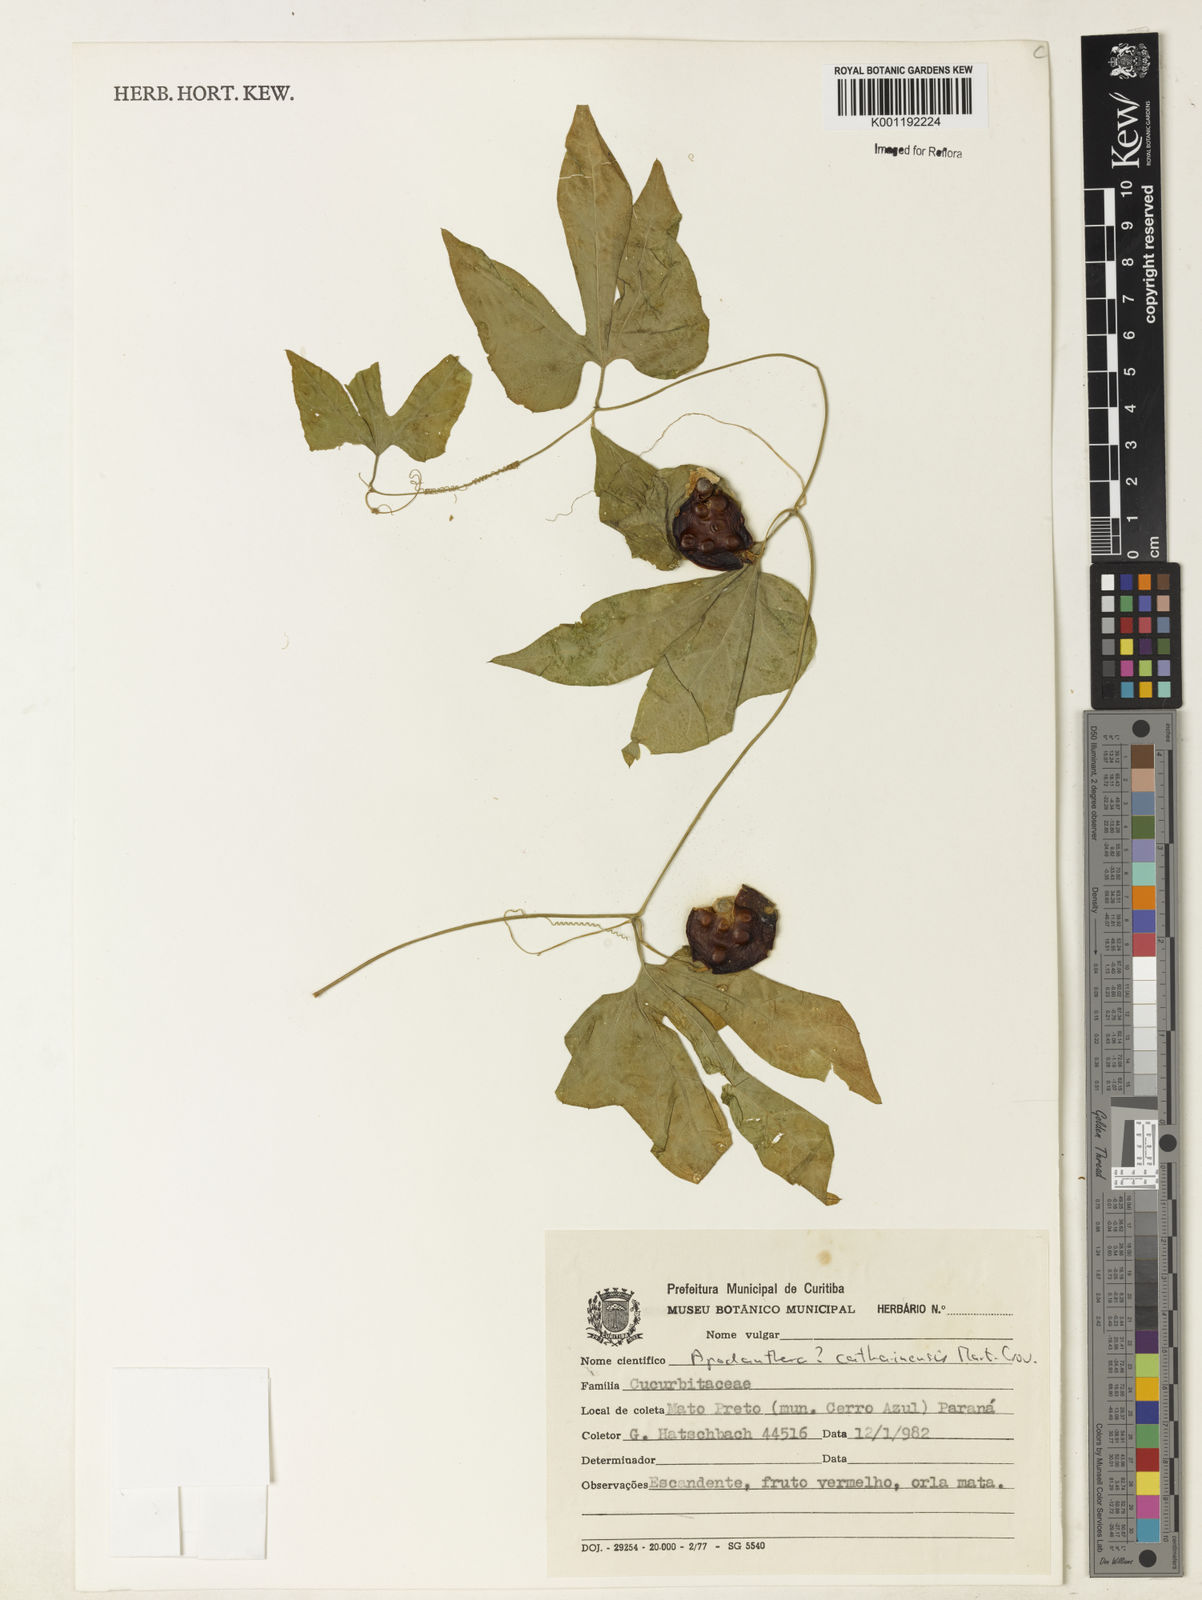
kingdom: Plantae
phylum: Tracheophyta
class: Magnoliopsida
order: Cucurbitales
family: Cucurbitaceae
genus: Apodanthera
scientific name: Apodanthera catharinensis
